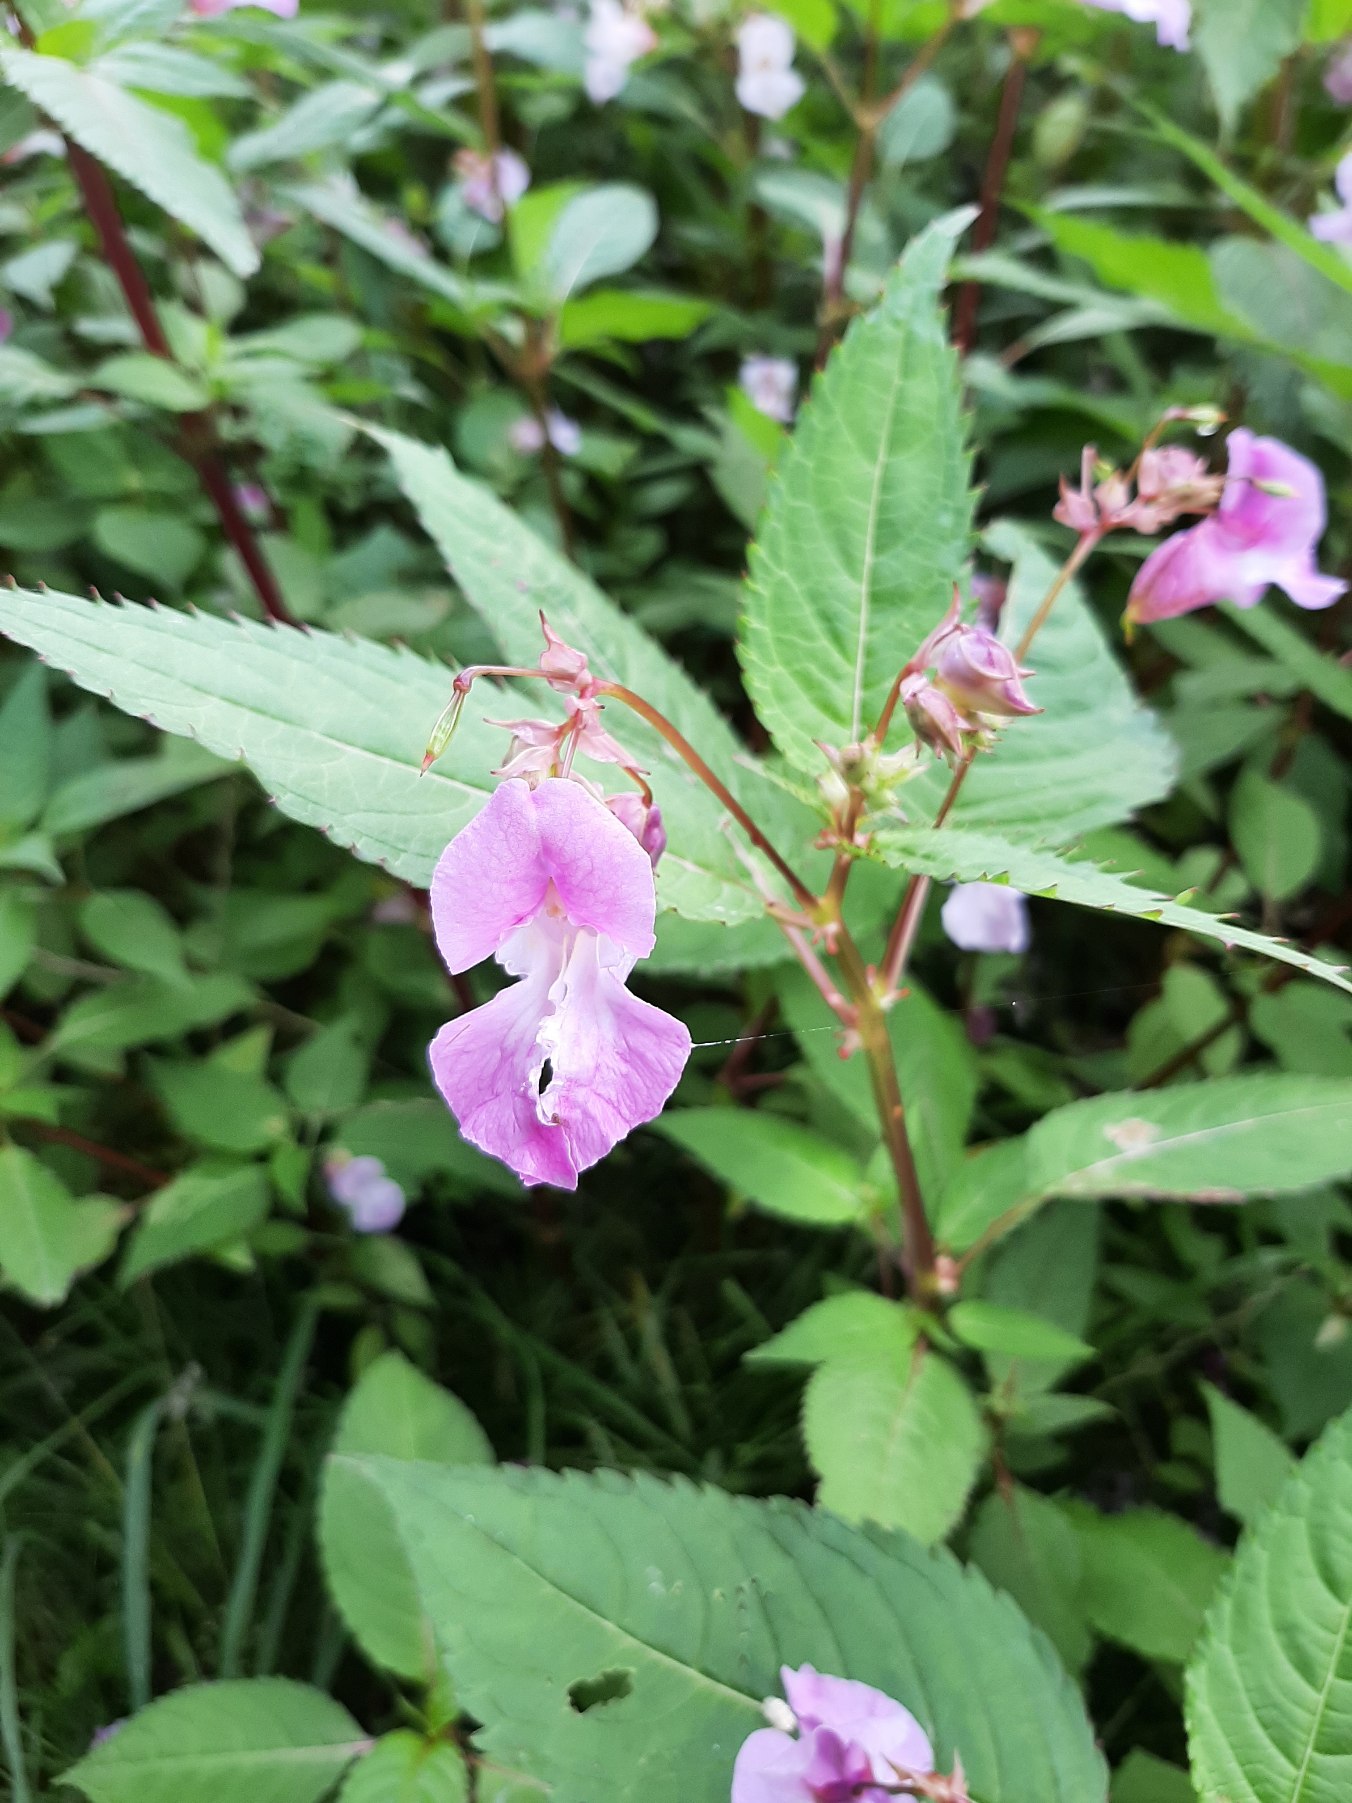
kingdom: Plantae
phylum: Tracheophyta
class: Magnoliopsida
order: Ericales
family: Balsaminaceae
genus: Impatiens
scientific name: Impatiens glandulifera
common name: Kæmpe-balsamin
